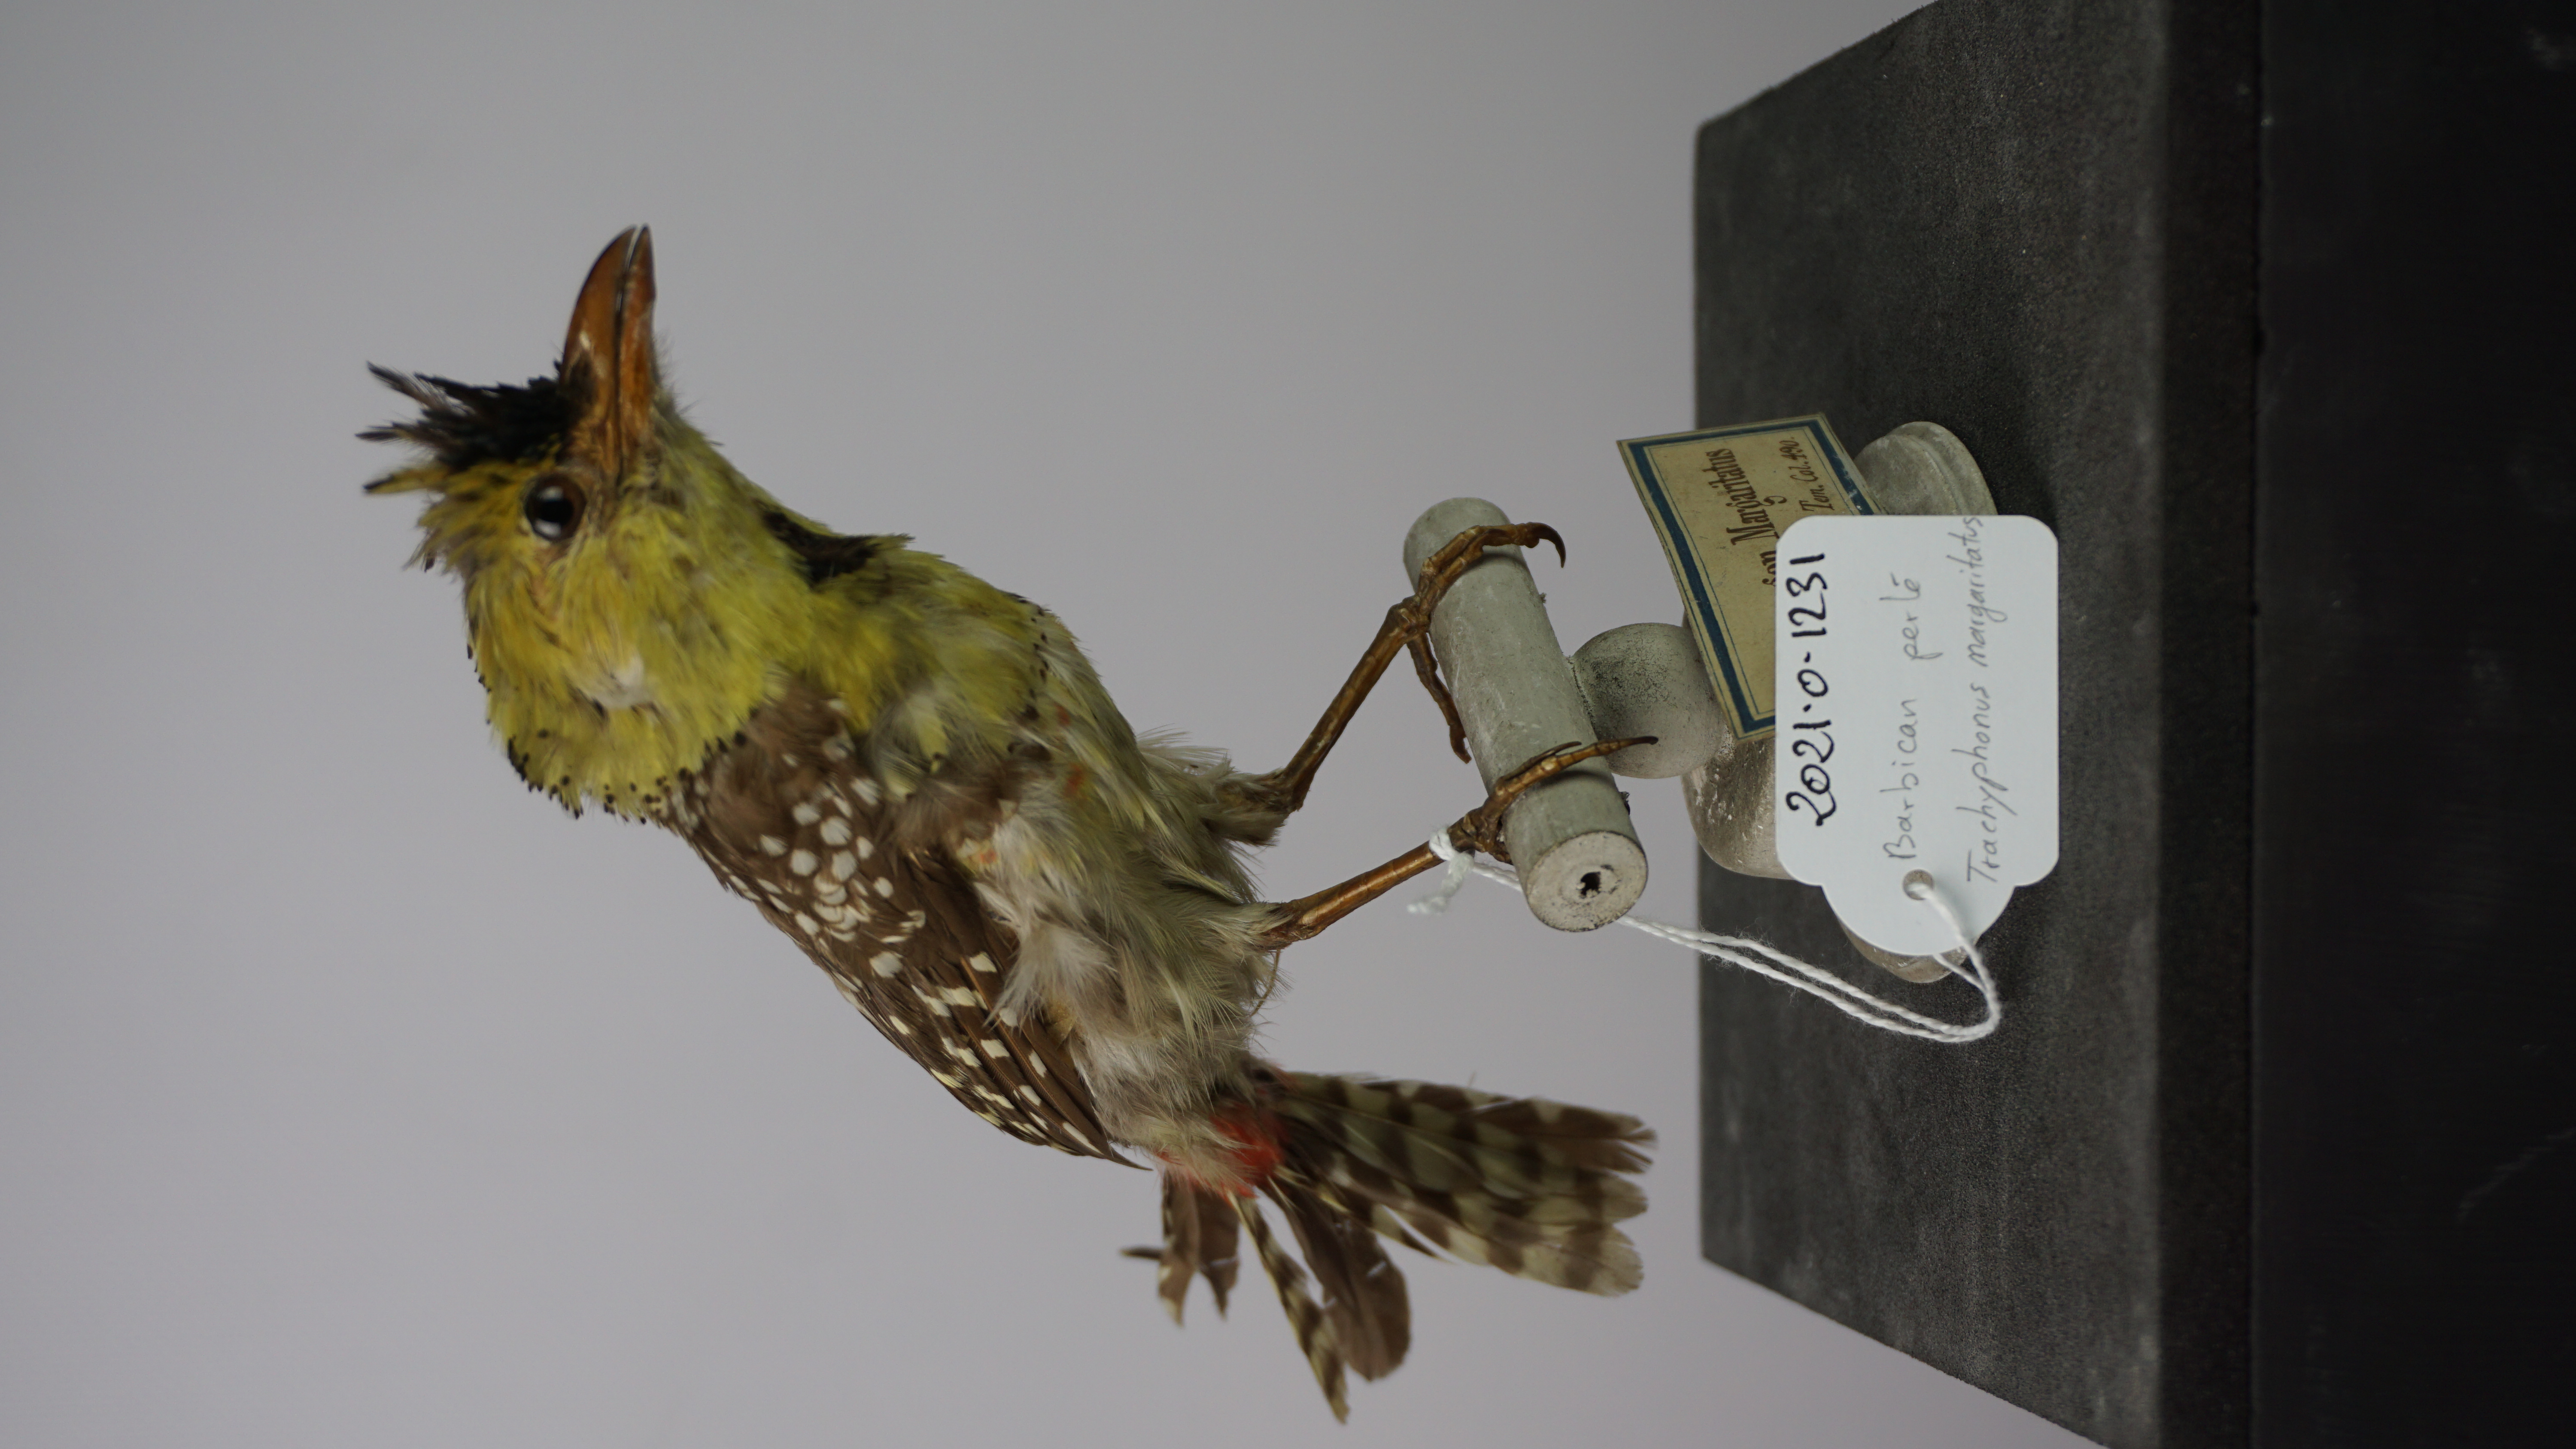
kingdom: Animalia
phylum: Chordata
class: Aves
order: Piciformes
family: Lybiidae
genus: Trachyphonus
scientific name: Trachyphonus margaritatus
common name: Yellow-breasted barbet
